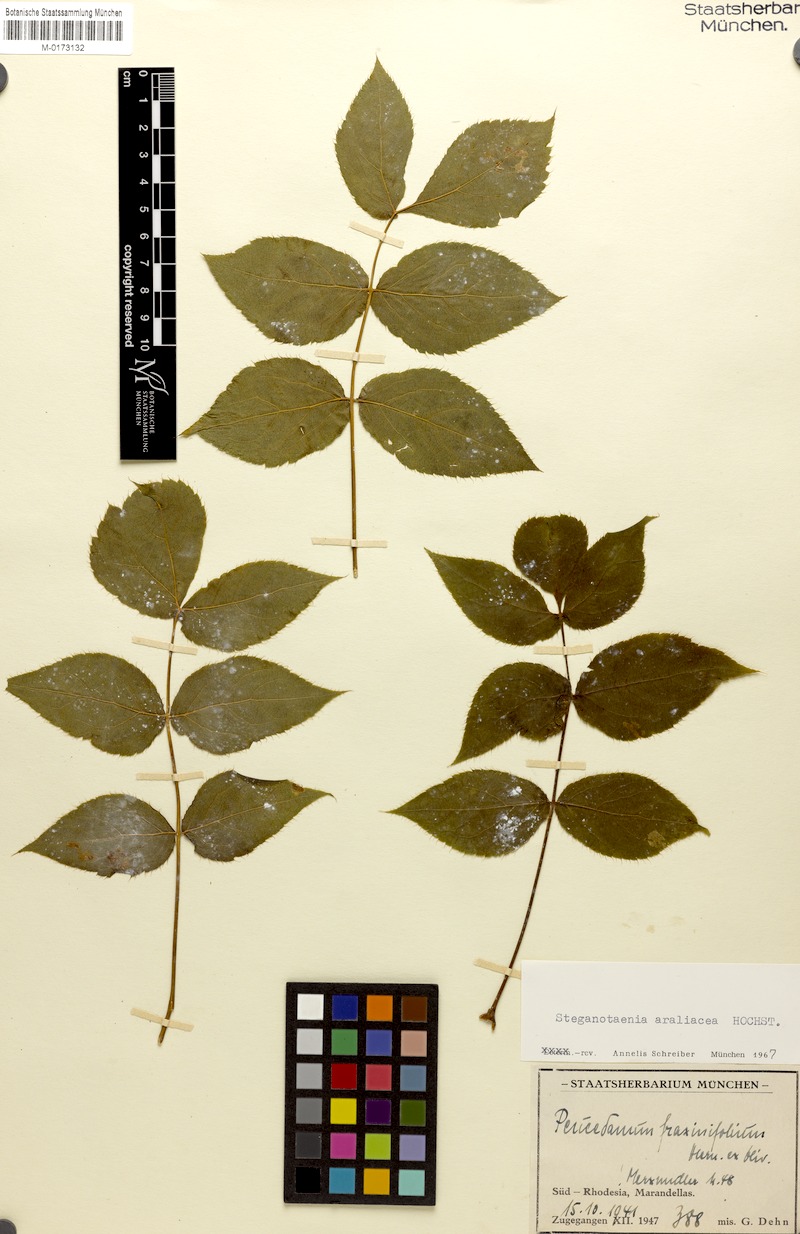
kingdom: Plantae
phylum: Tracheophyta
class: Magnoliopsida
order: Apiales
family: Apiaceae
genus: Steganotaenia
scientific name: Steganotaenia araliacea
